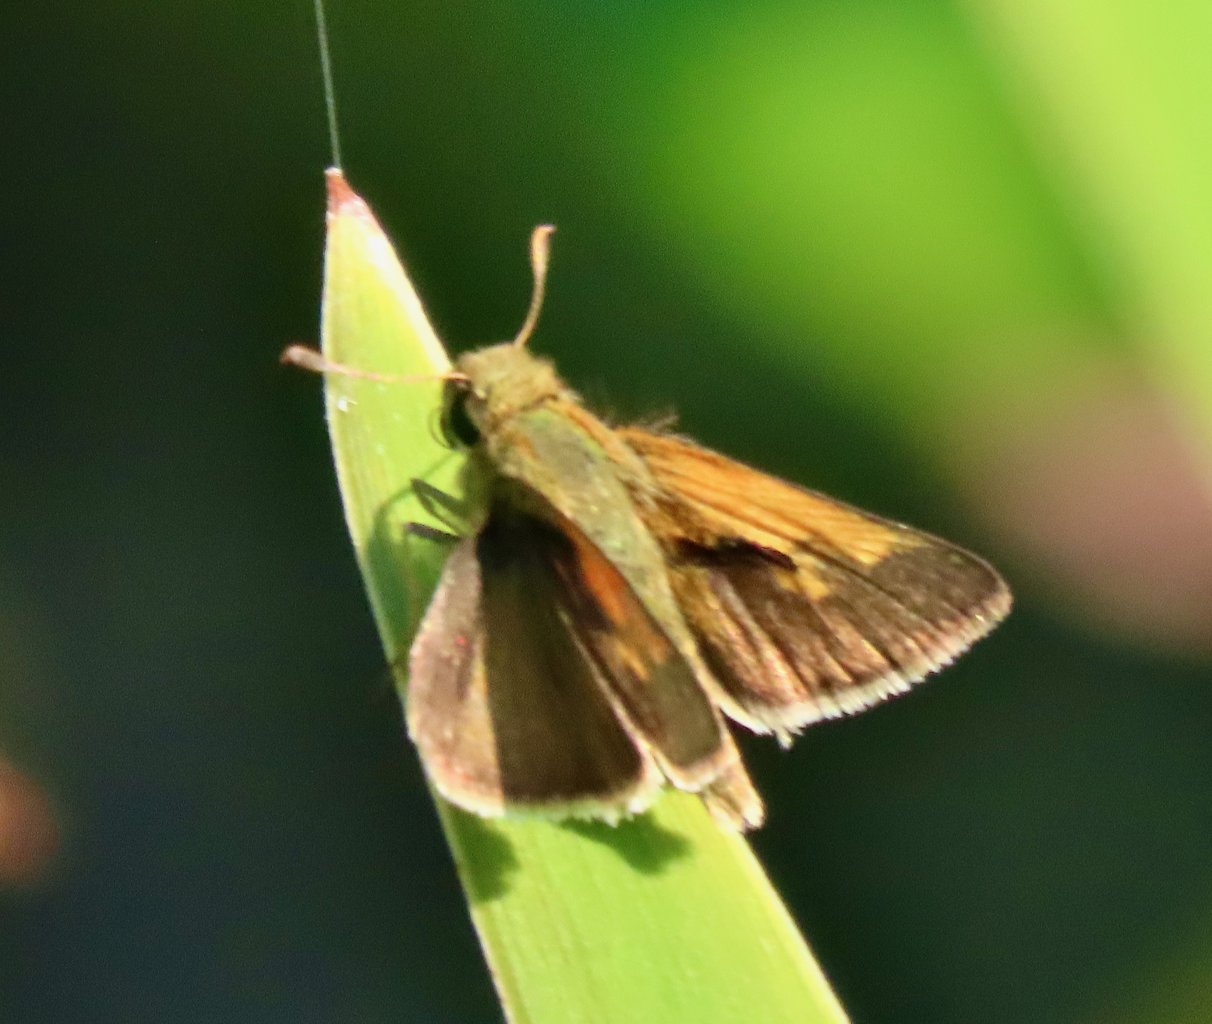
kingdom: Animalia
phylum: Arthropoda
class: Insecta
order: Lepidoptera
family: Hesperiidae
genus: Polites
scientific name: Polites themistocles
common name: Tawny-edged Skipper
